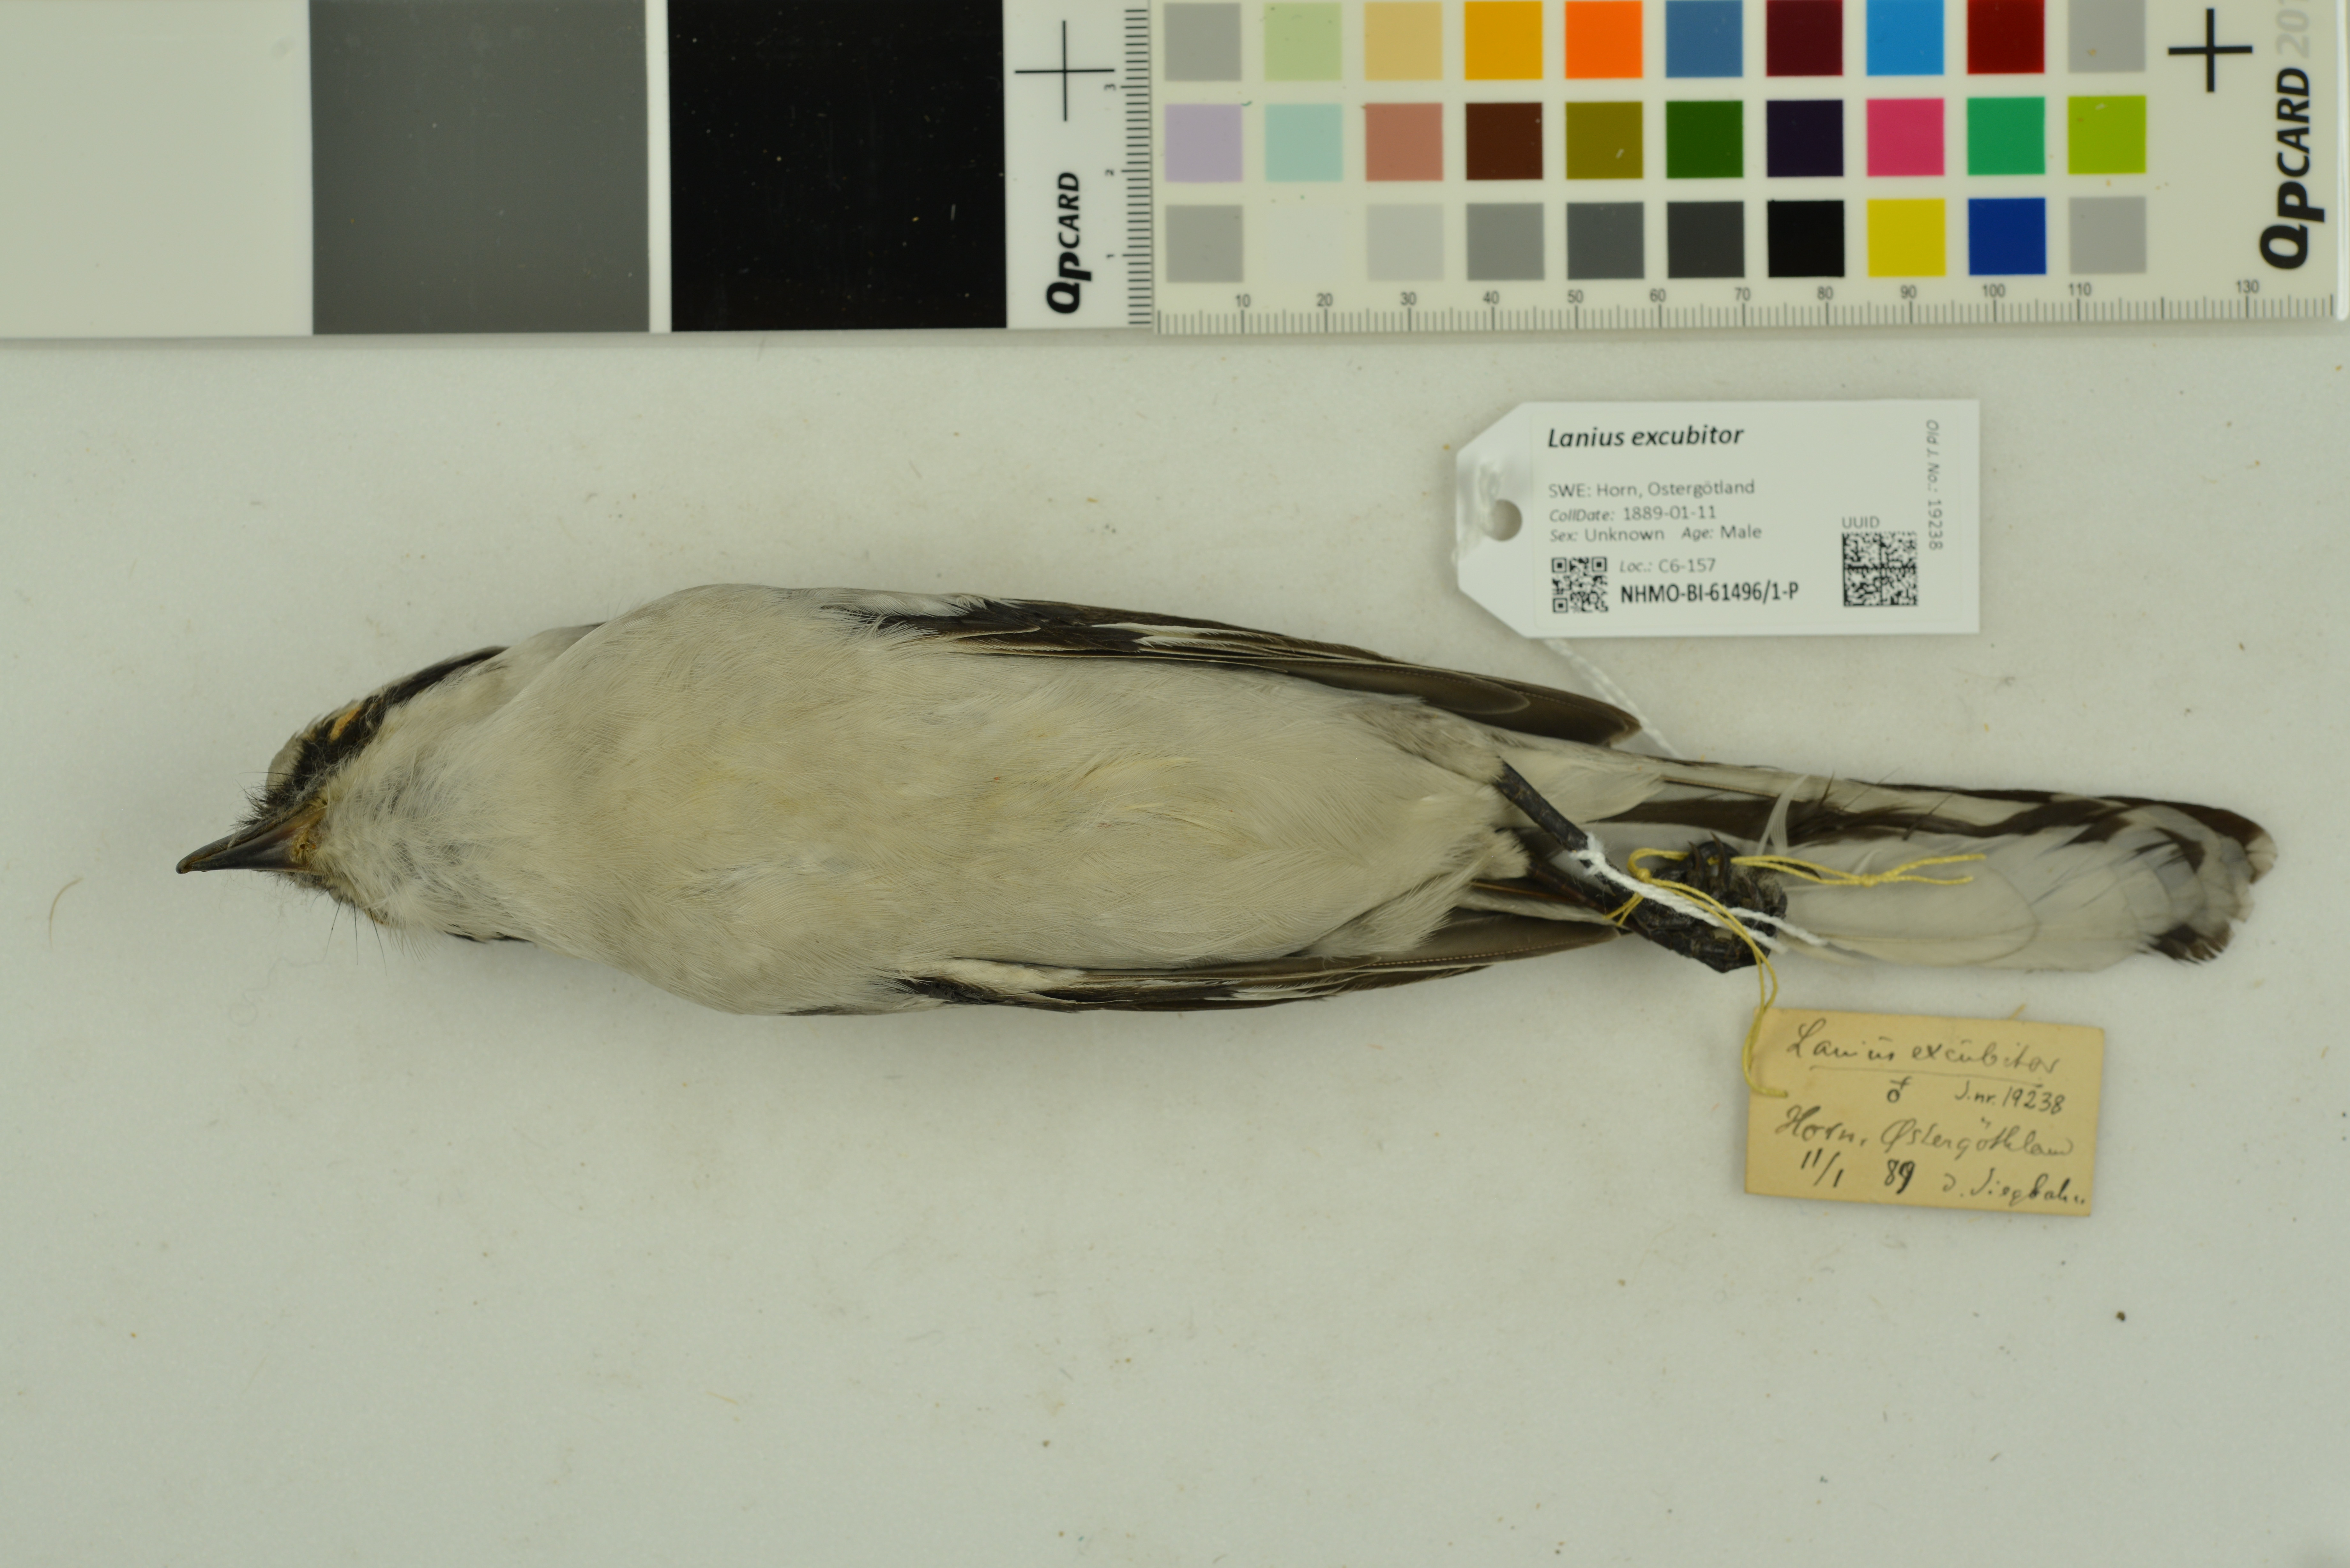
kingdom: Animalia
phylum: Chordata
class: Aves
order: Passeriformes
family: Laniidae
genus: Lanius
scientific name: Lanius excubitor
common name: Great grey shrike
